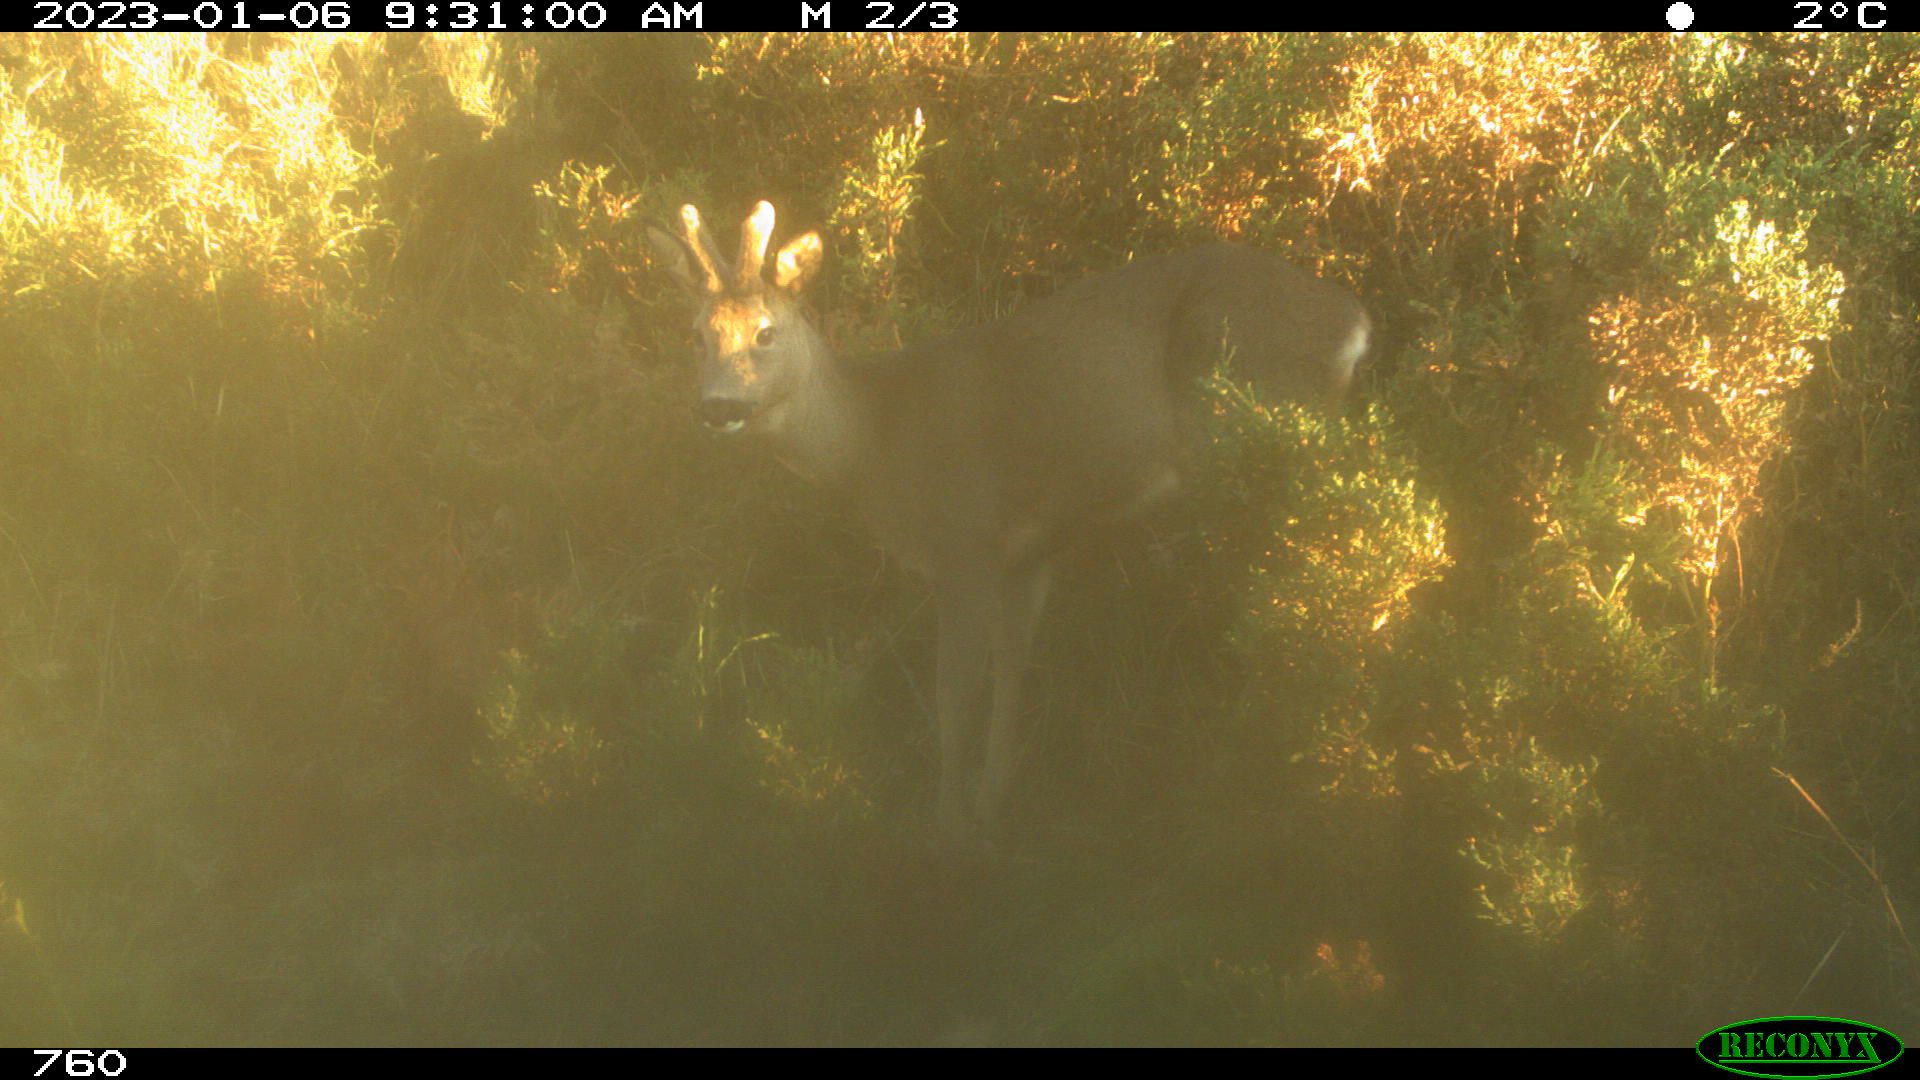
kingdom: Animalia
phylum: Chordata
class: Mammalia
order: Artiodactyla
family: Cervidae
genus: Capreolus
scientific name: Capreolus capreolus
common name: Western roe deer
